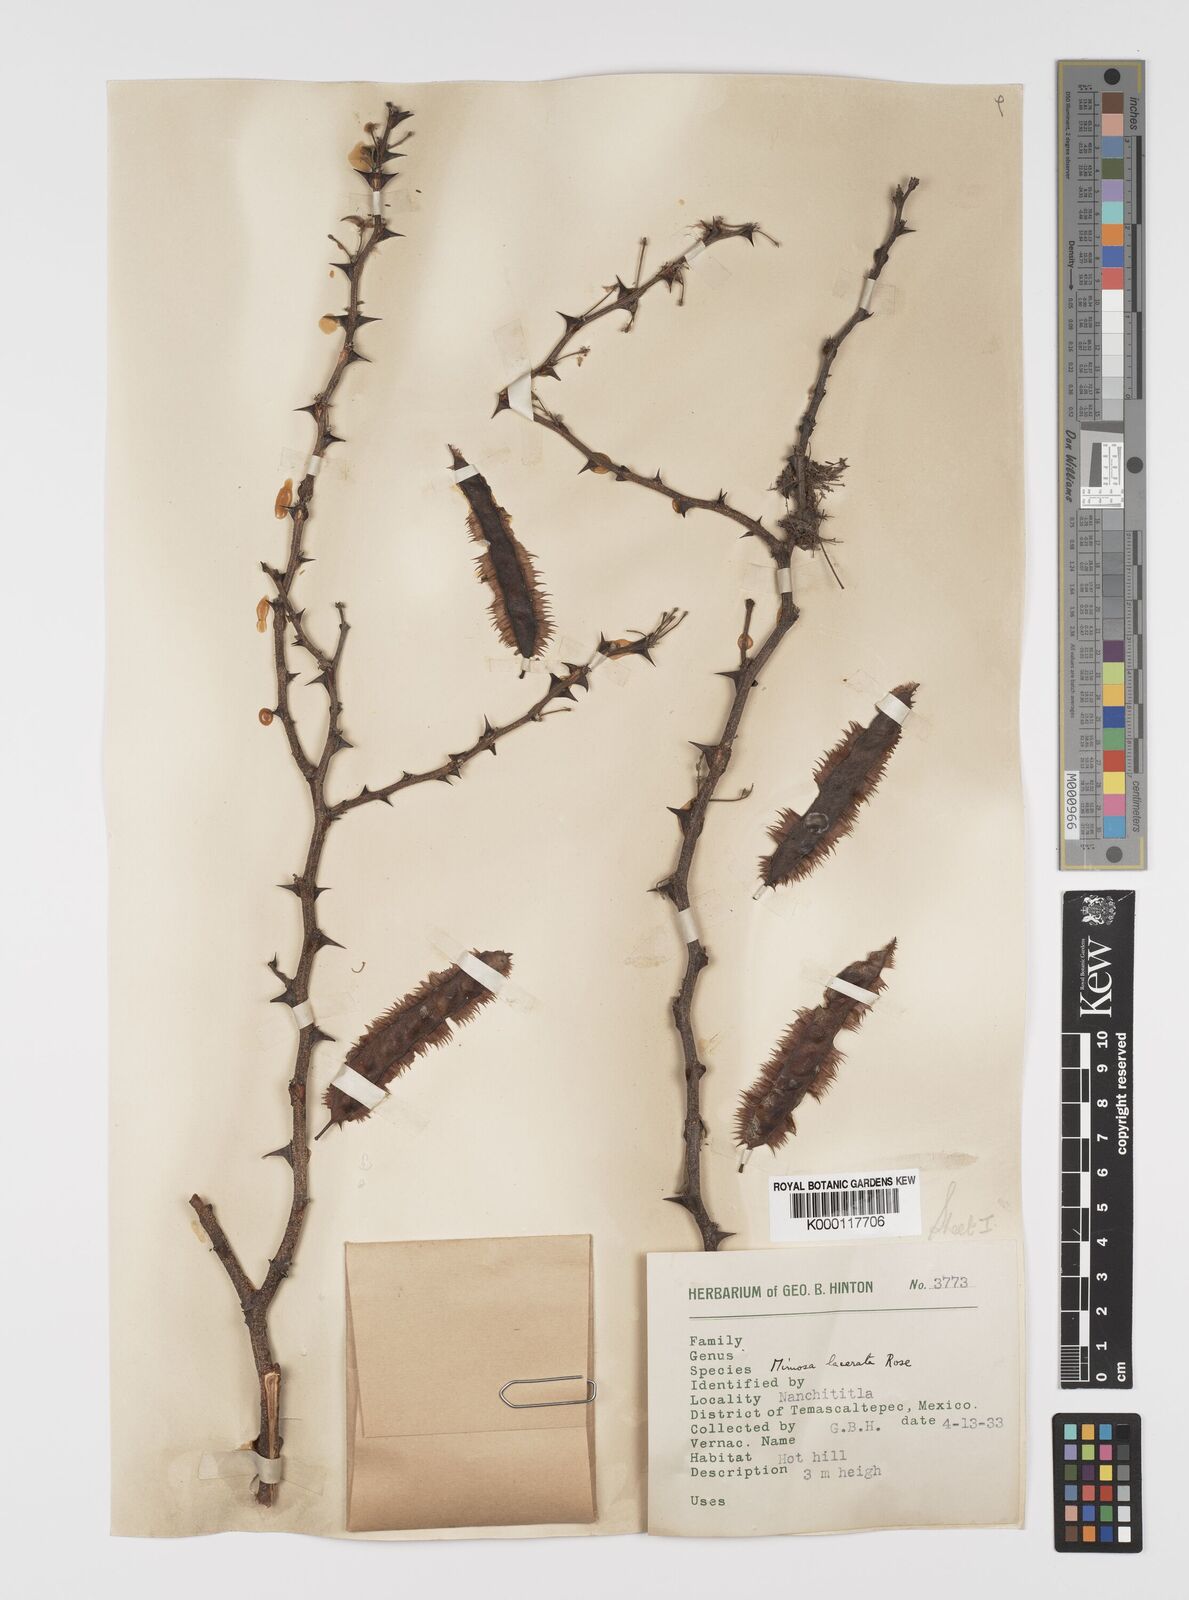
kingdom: Plantae
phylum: Tracheophyta
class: Magnoliopsida
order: Fabales
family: Fabaceae
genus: Mimosa
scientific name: Mimosa lacerata
